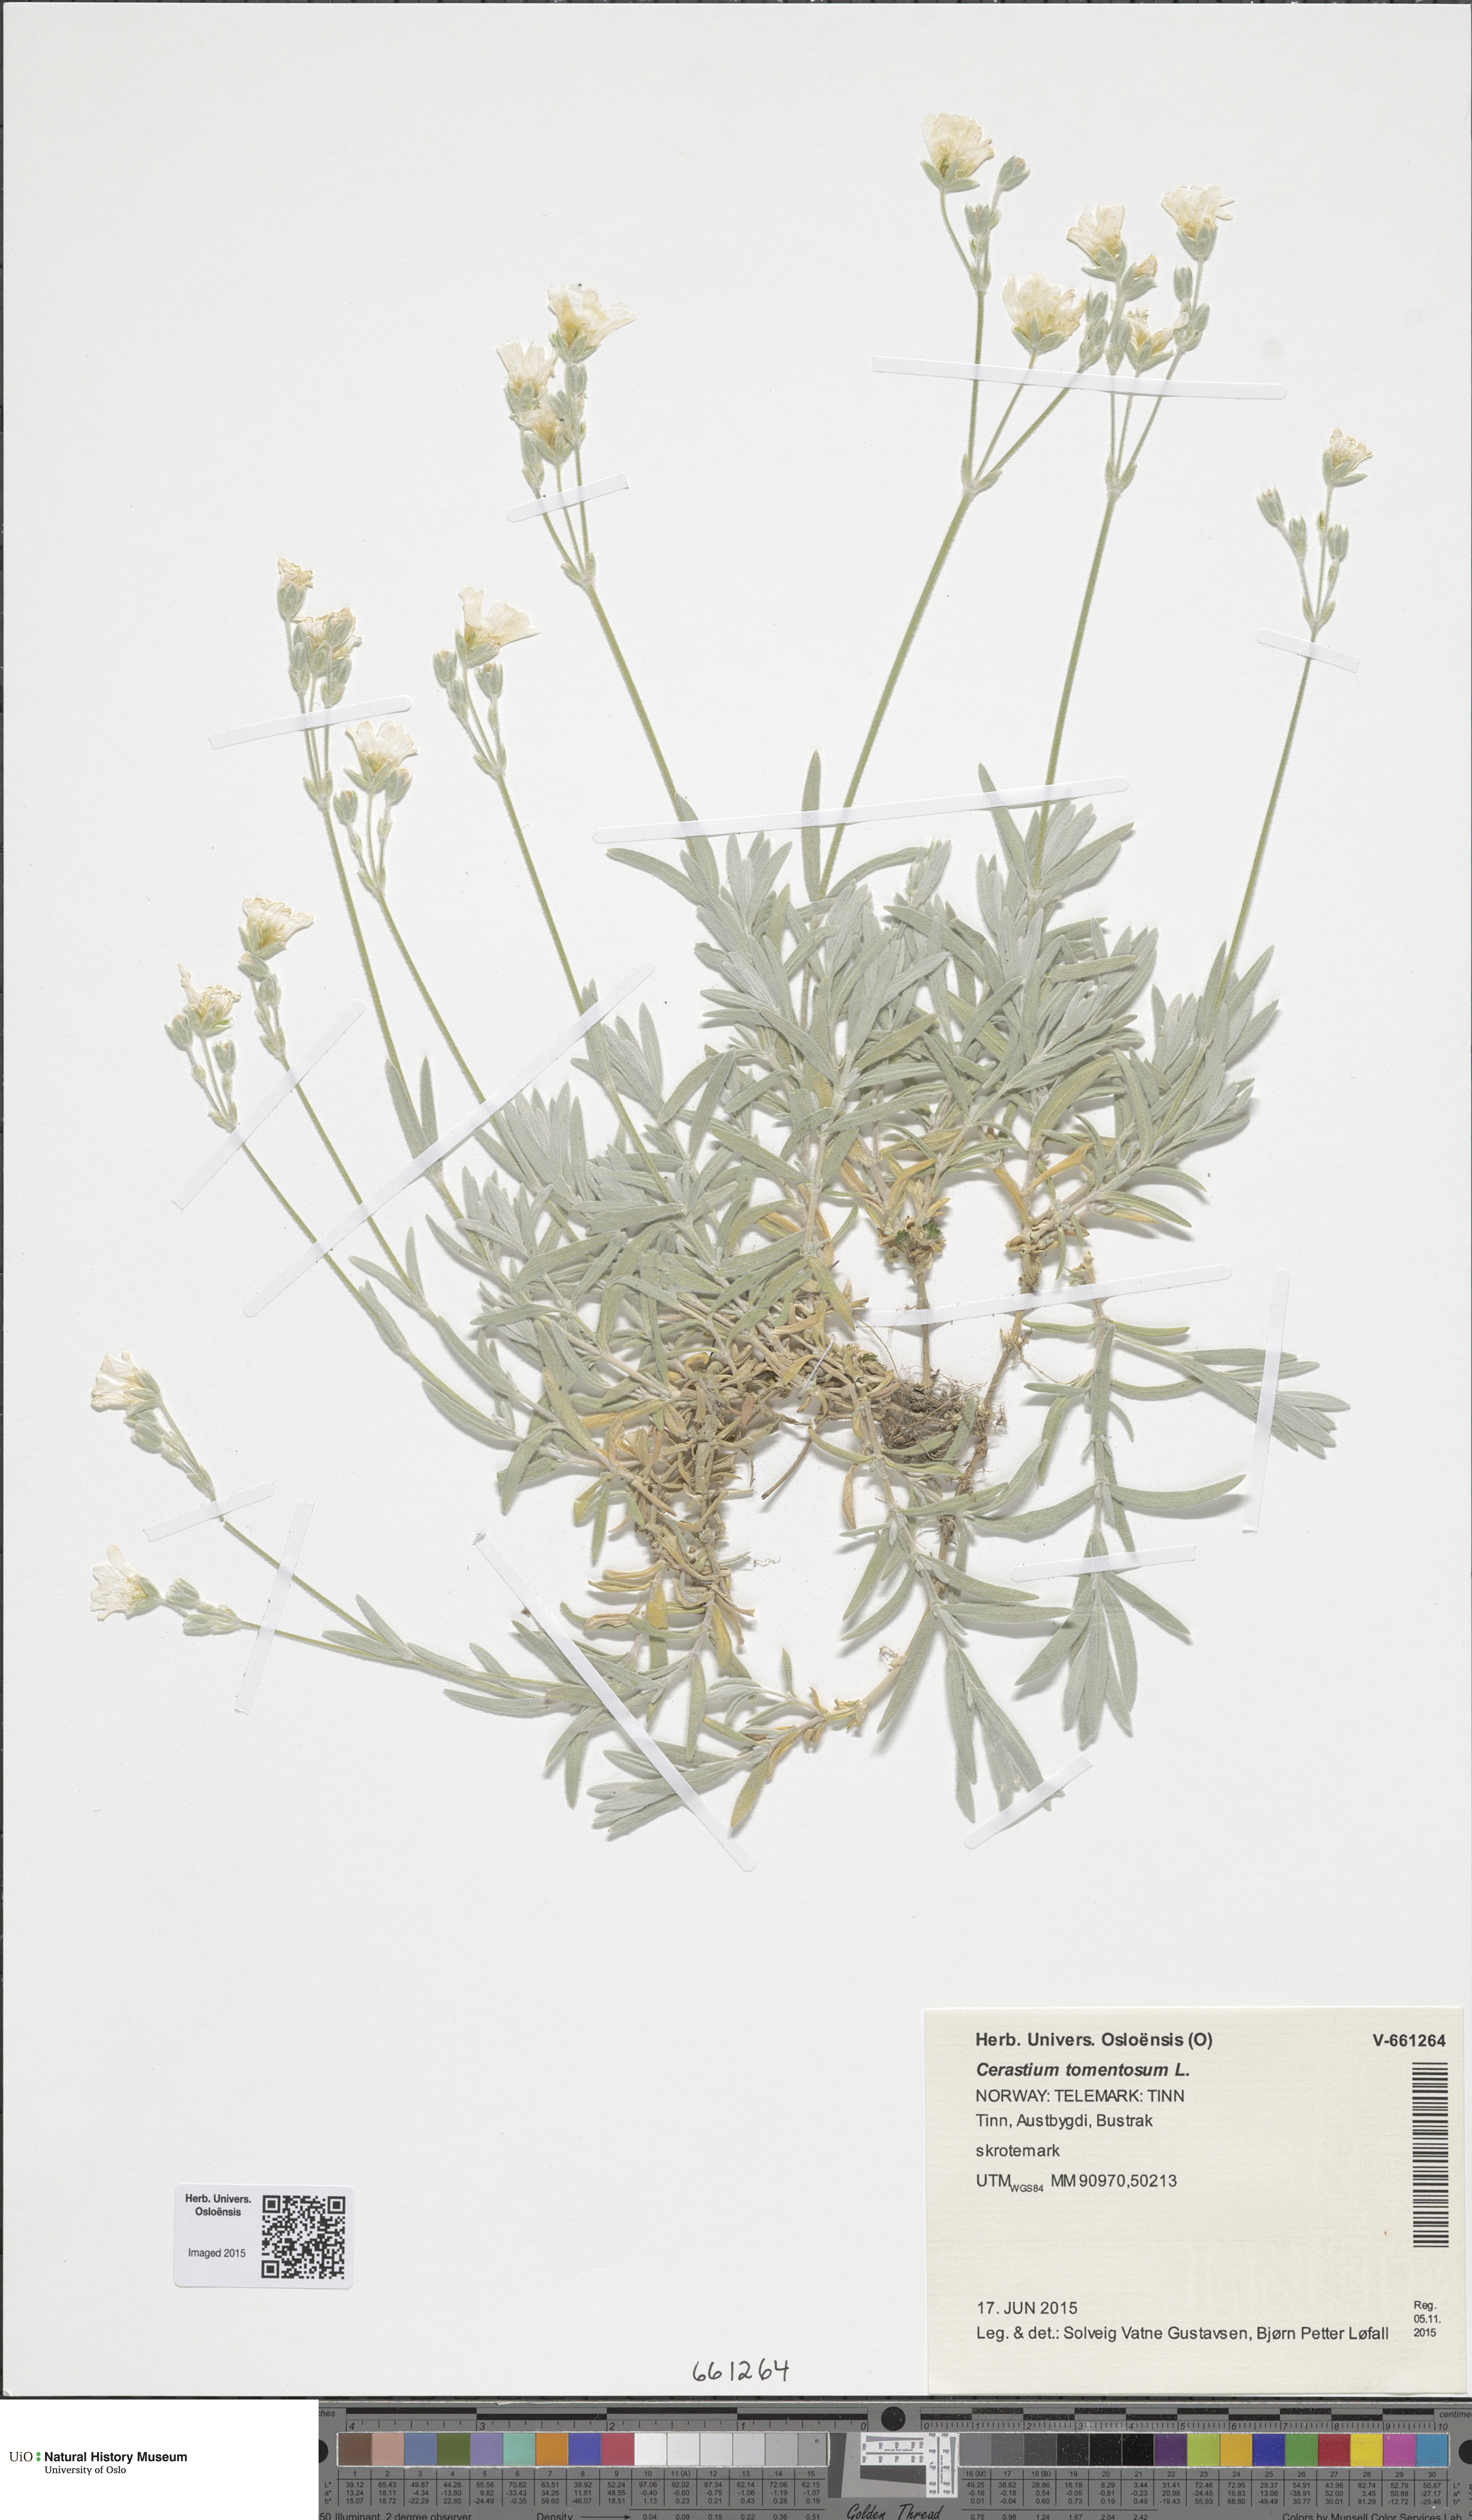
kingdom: Plantae
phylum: Tracheophyta
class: Magnoliopsida
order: Caryophyllales
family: Caryophyllaceae
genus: Cerastium
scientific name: Cerastium tomentosum
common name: Snow-in-summer
